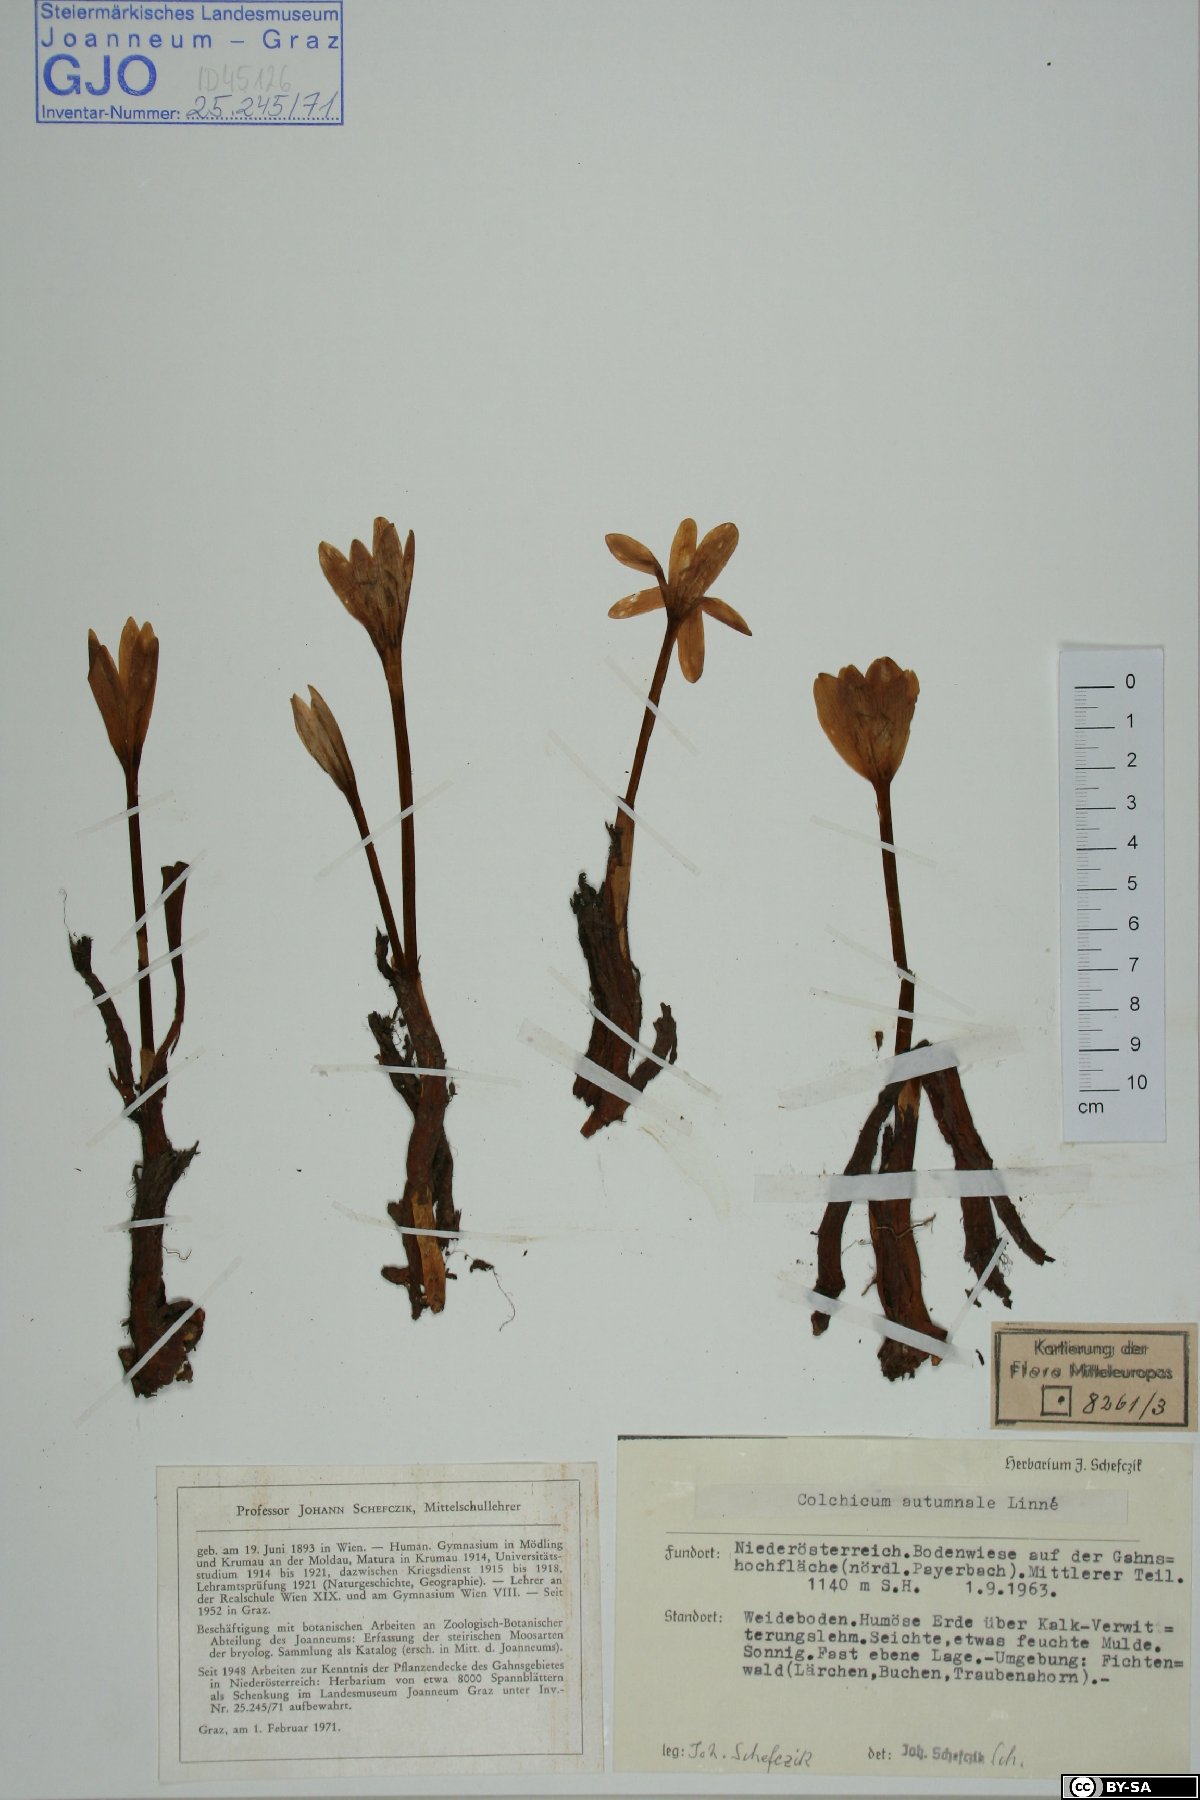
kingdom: Plantae
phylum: Tracheophyta
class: Liliopsida
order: Liliales
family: Colchicaceae
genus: Colchicum
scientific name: Colchicum autumnale
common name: Autumn crocus
